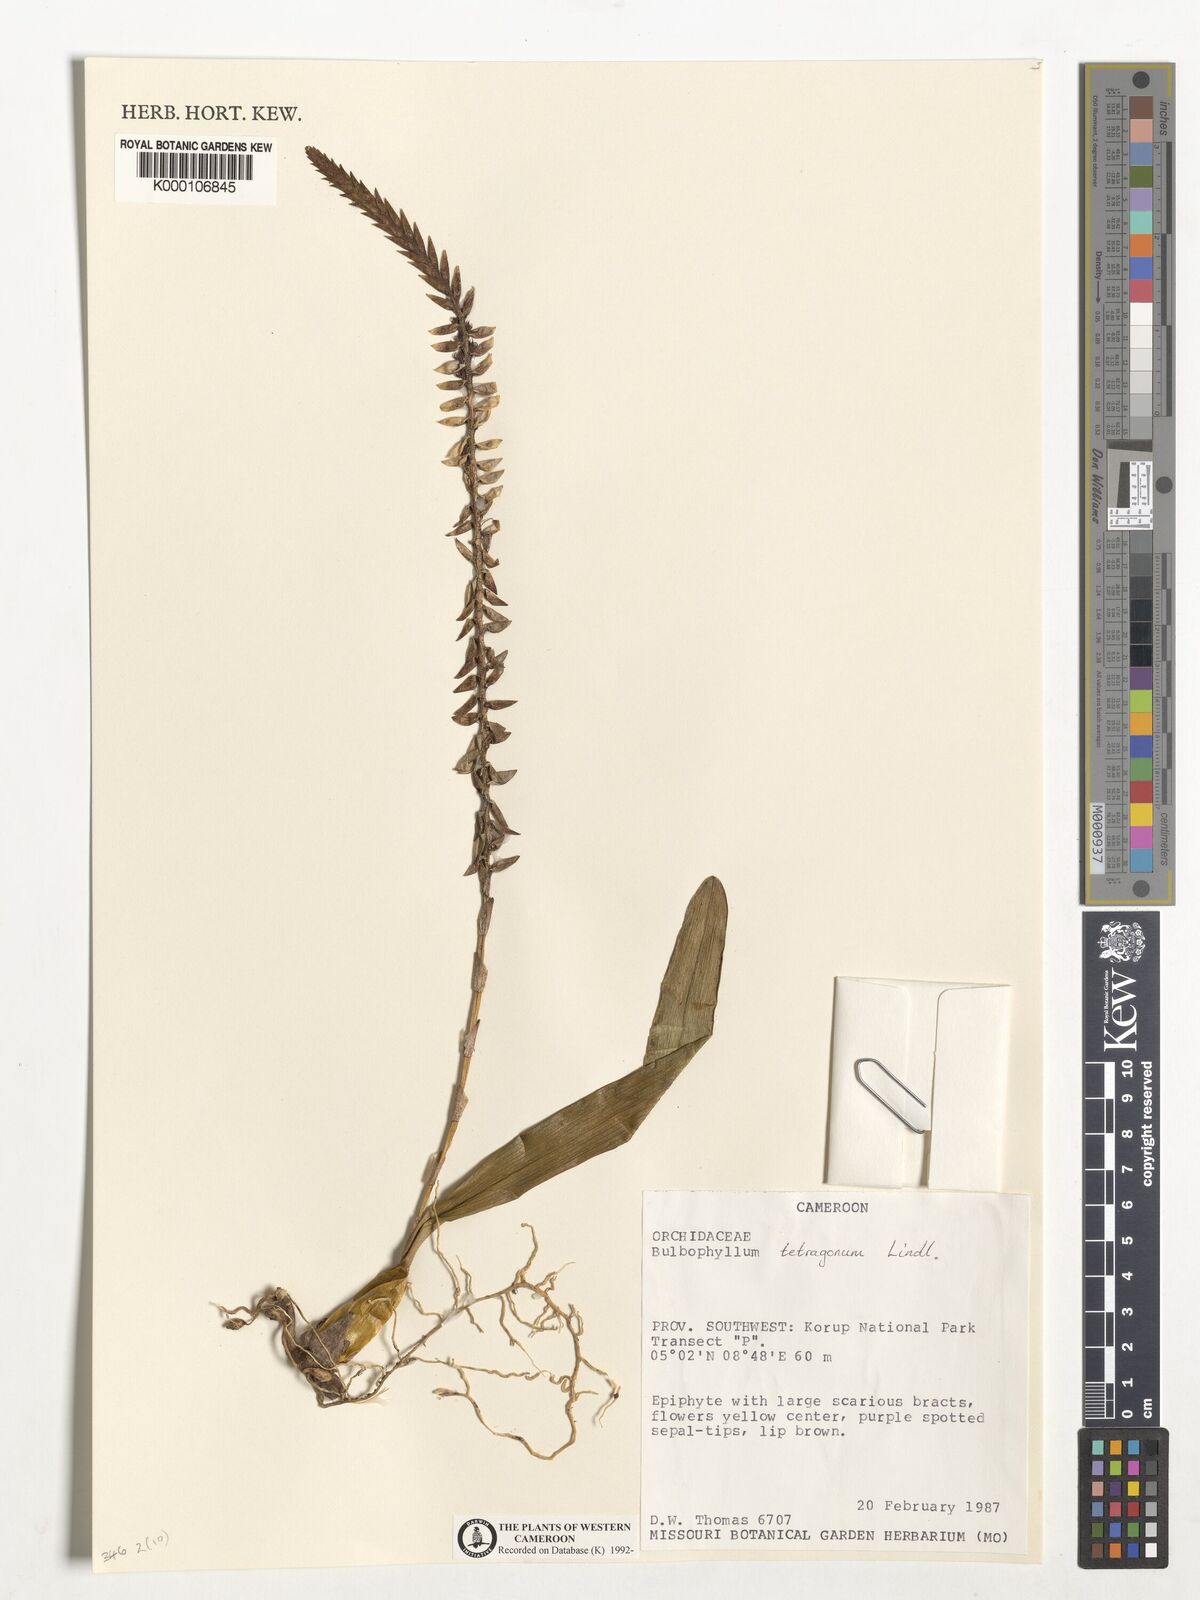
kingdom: Plantae
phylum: Tracheophyta
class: Liliopsida
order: Asparagales
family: Orchidaceae
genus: Bulbophyllum
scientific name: Bulbophyllum tetragonum
